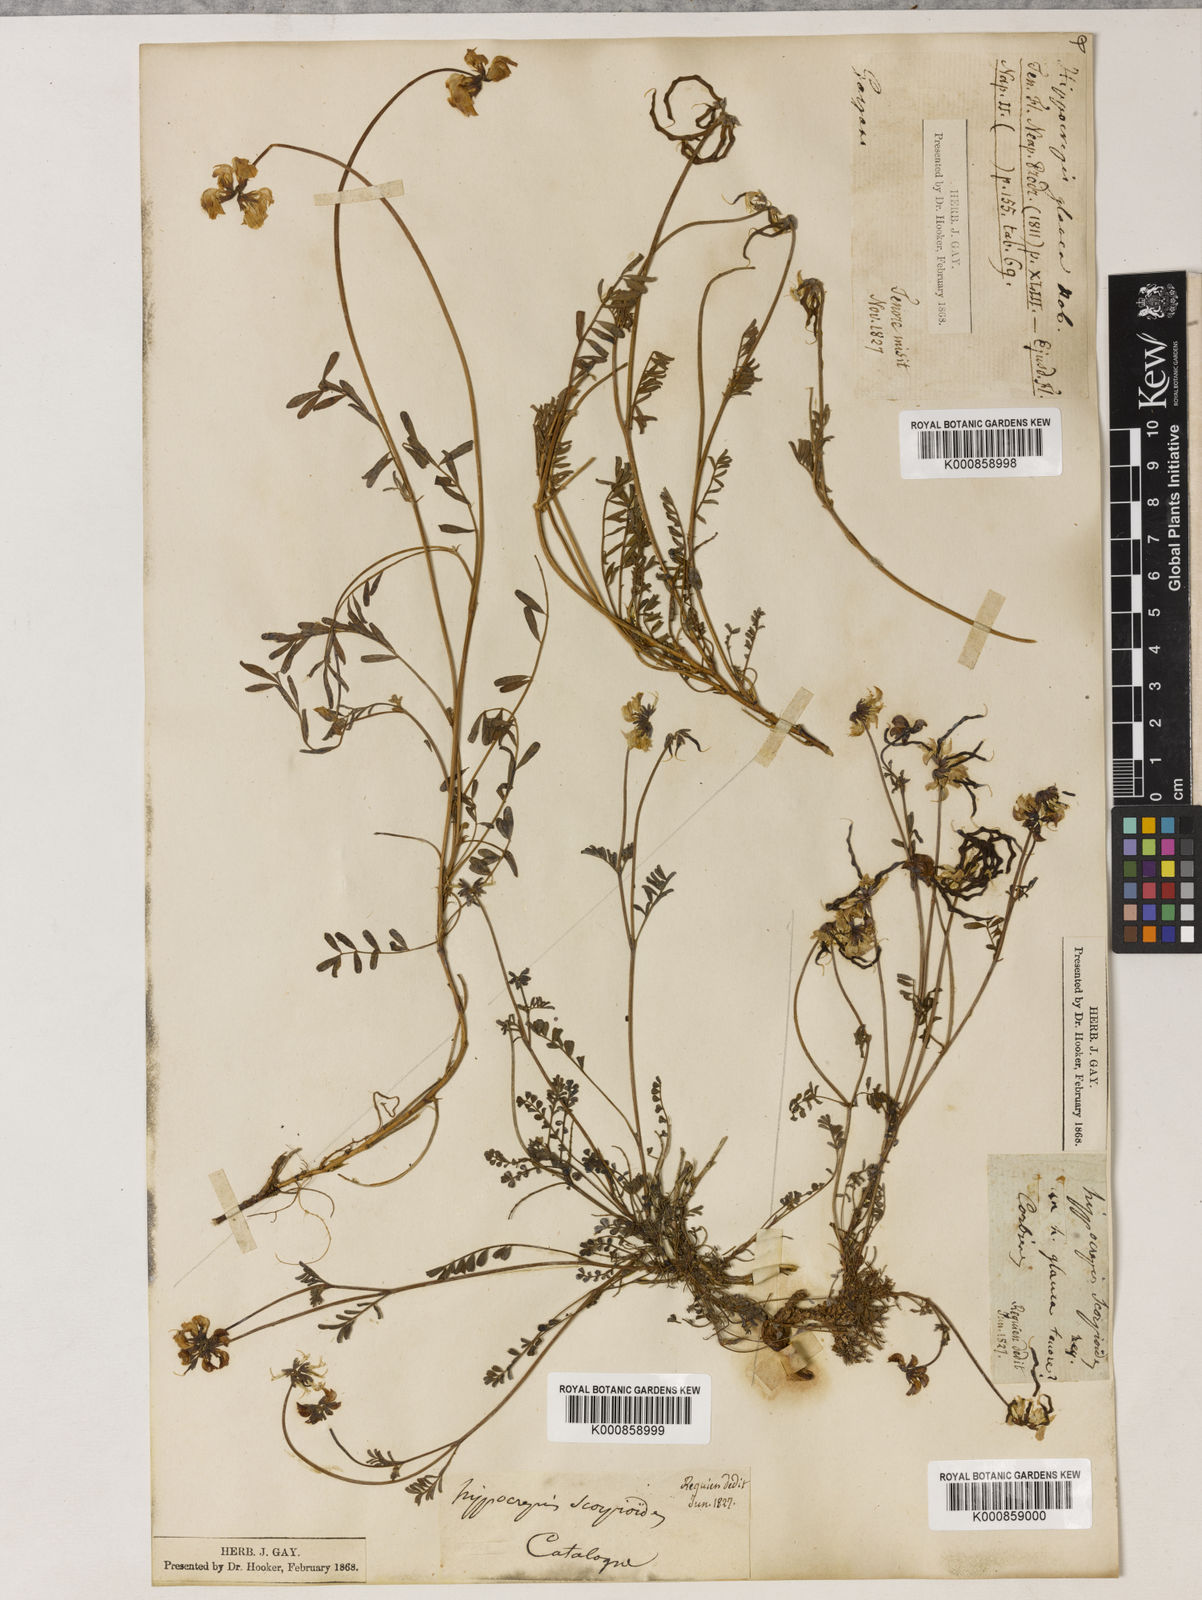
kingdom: Plantae
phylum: Tracheophyta
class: Magnoliopsida
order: Fabales
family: Fabaceae
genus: Hippocrepis
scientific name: Hippocrepis glauca
